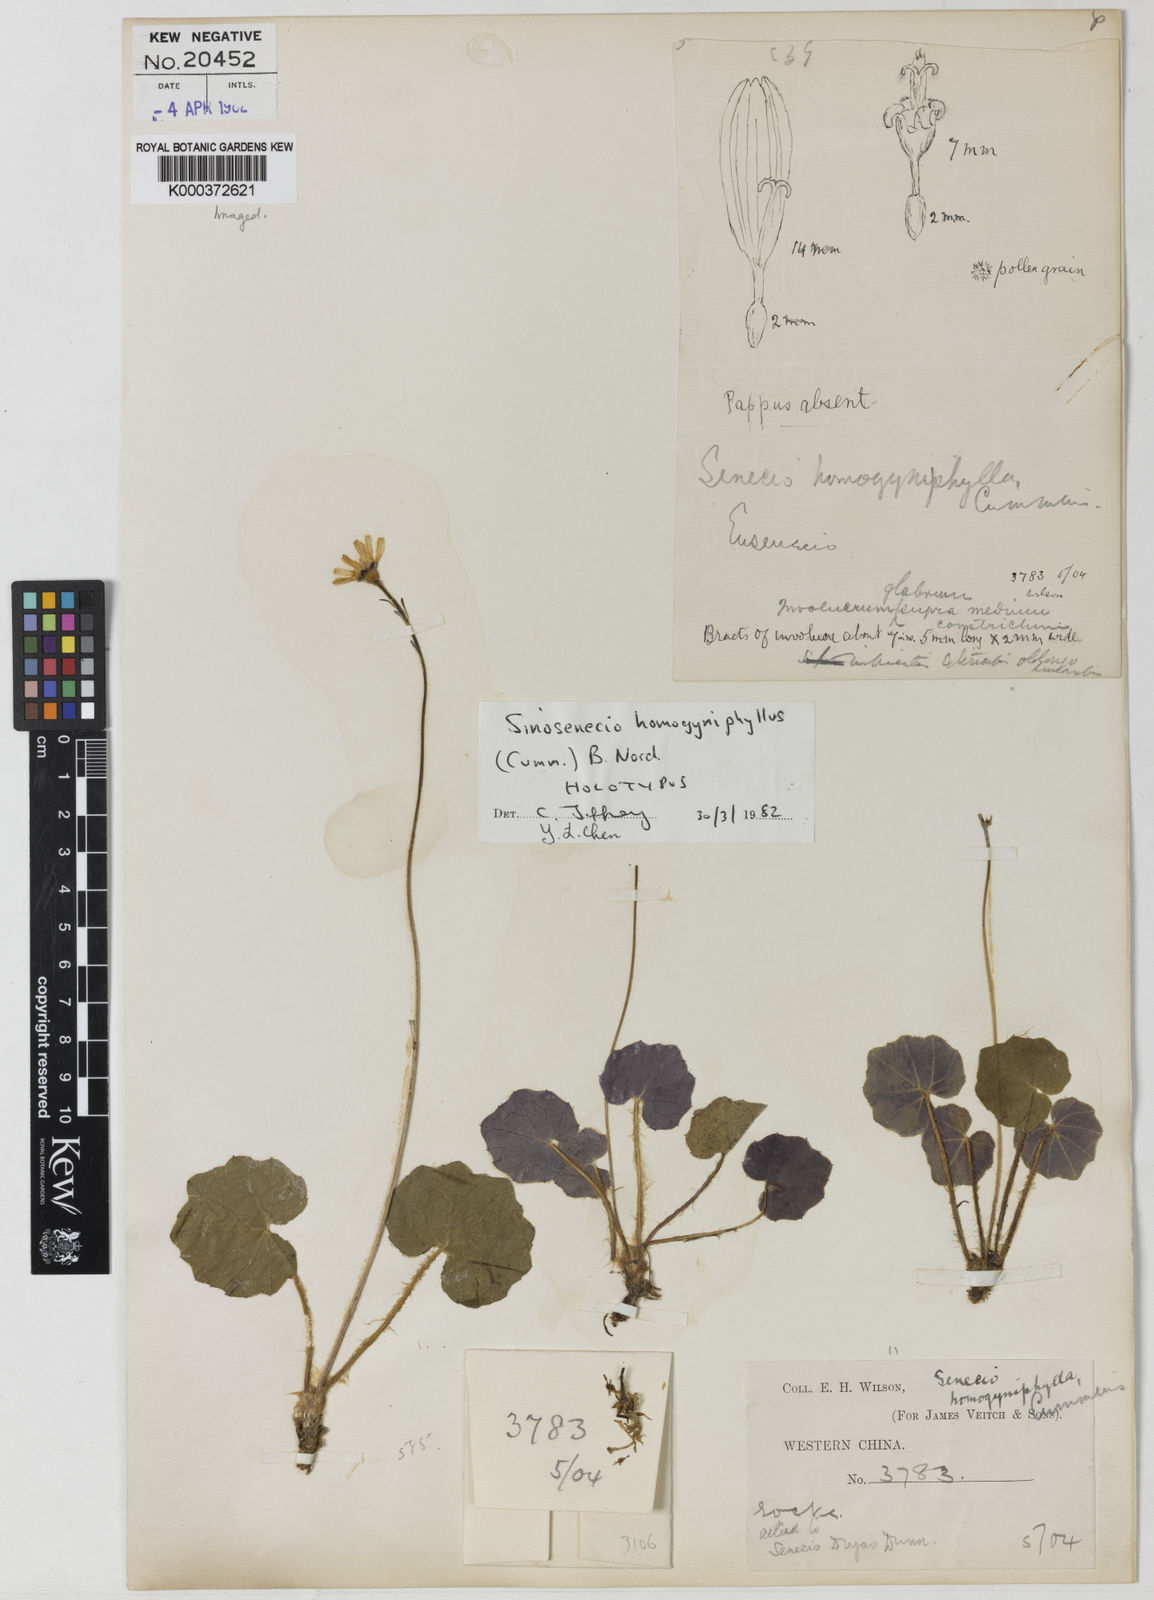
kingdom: Plantae
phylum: Tracheophyta
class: Magnoliopsida
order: Asterales
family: Asteraceae
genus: Sinosenecio
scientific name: Sinosenecio homogyniphyllus
